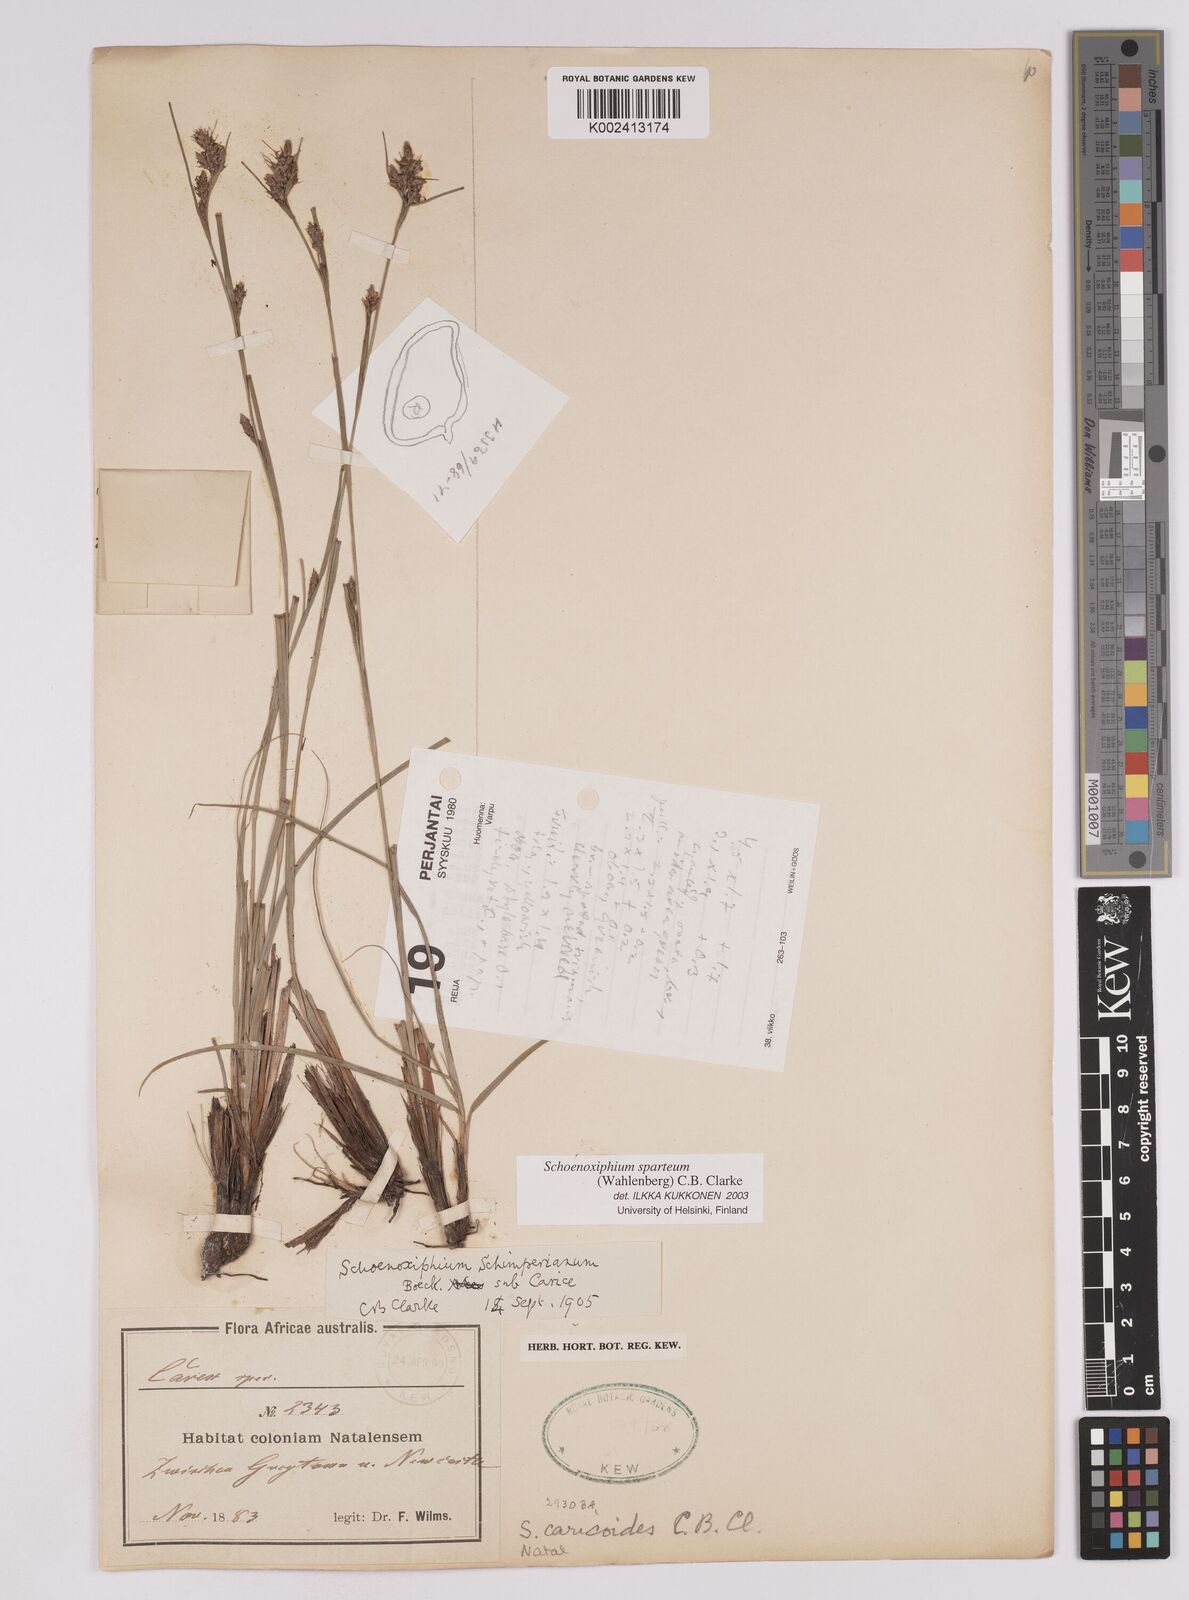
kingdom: Plantae
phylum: Tracheophyta
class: Liliopsida
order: Poales
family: Cyperaceae
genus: Carex
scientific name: Carex spartea
